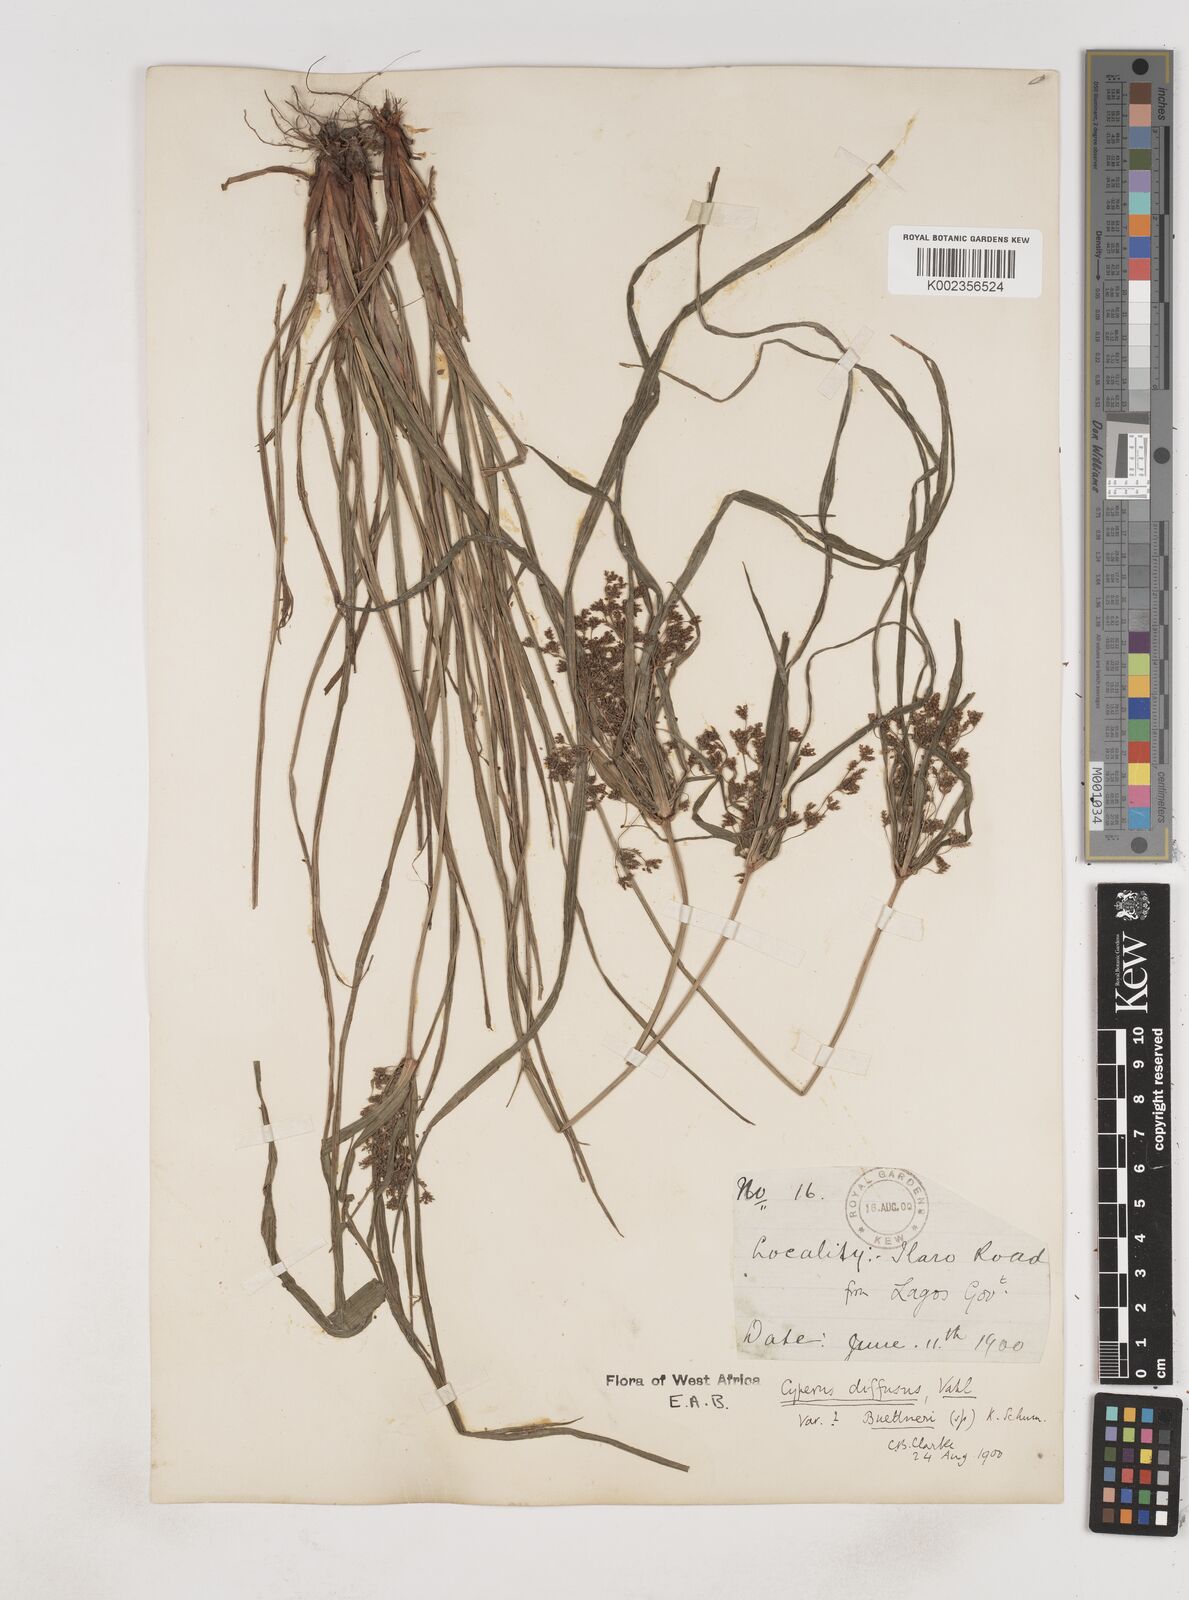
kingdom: Plantae
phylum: Tracheophyta
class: Liliopsida
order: Poales
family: Cyperaceae
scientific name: Cyperaceae
